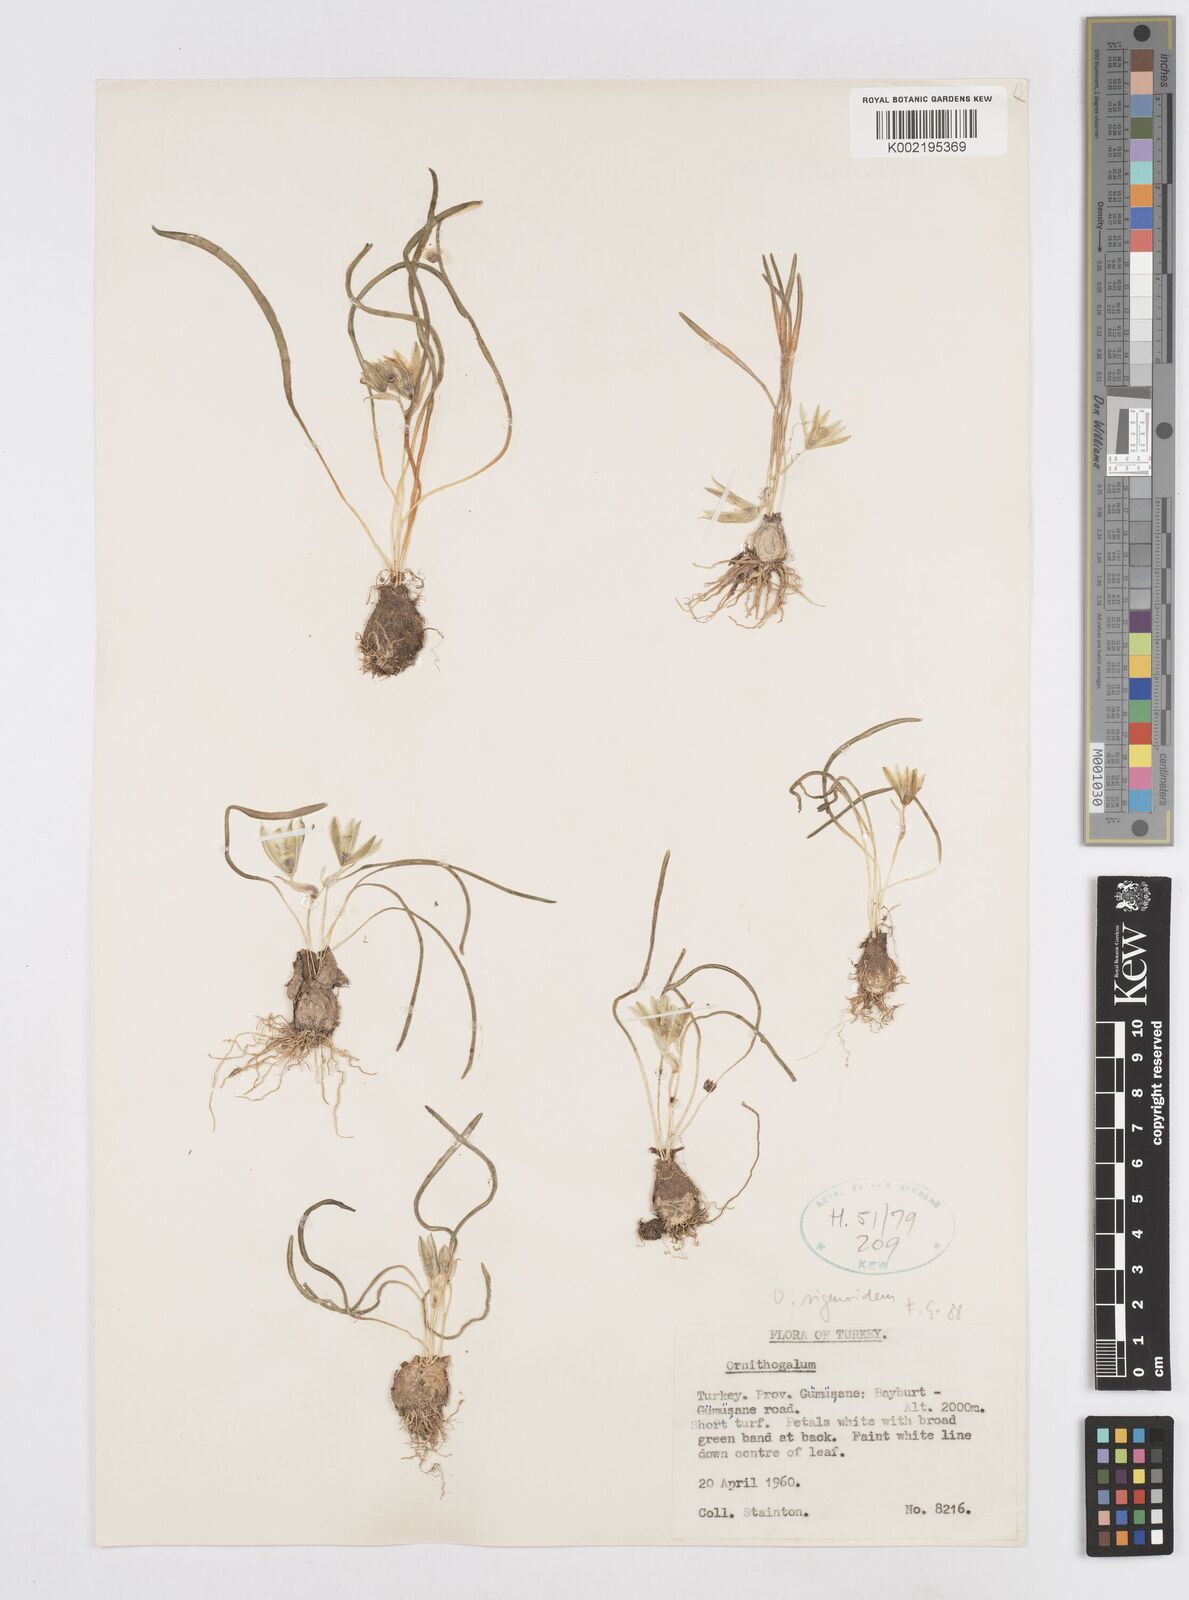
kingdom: Plantae
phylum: Tracheophyta
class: Liliopsida
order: Asparagales
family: Asparagaceae
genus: Ornithogalum
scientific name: Ornithogalum sigmoideum
